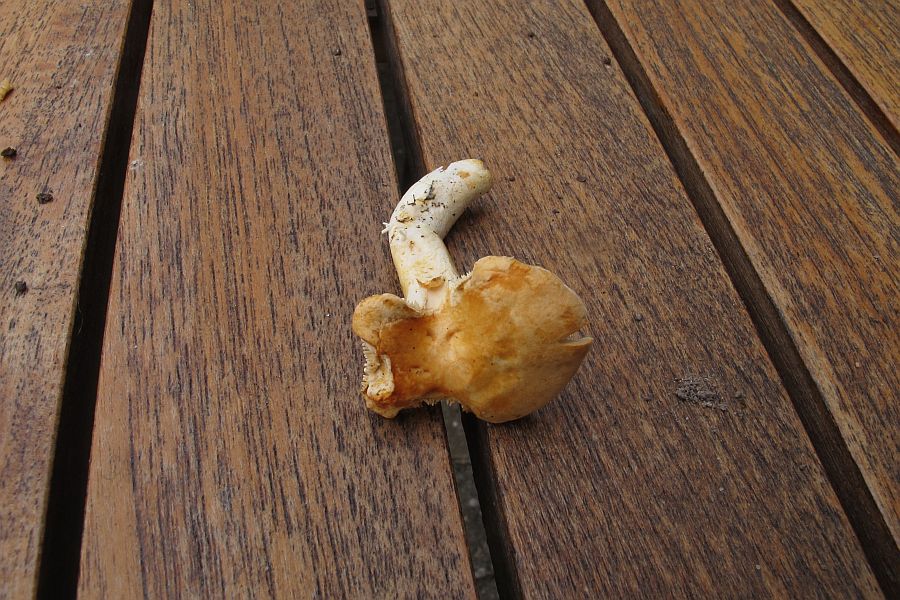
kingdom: Fungi
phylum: Basidiomycota
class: Agaricomycetes
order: Cantharellales
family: Hydnaceae
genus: Hydnum
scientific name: Hydnum rufescens
